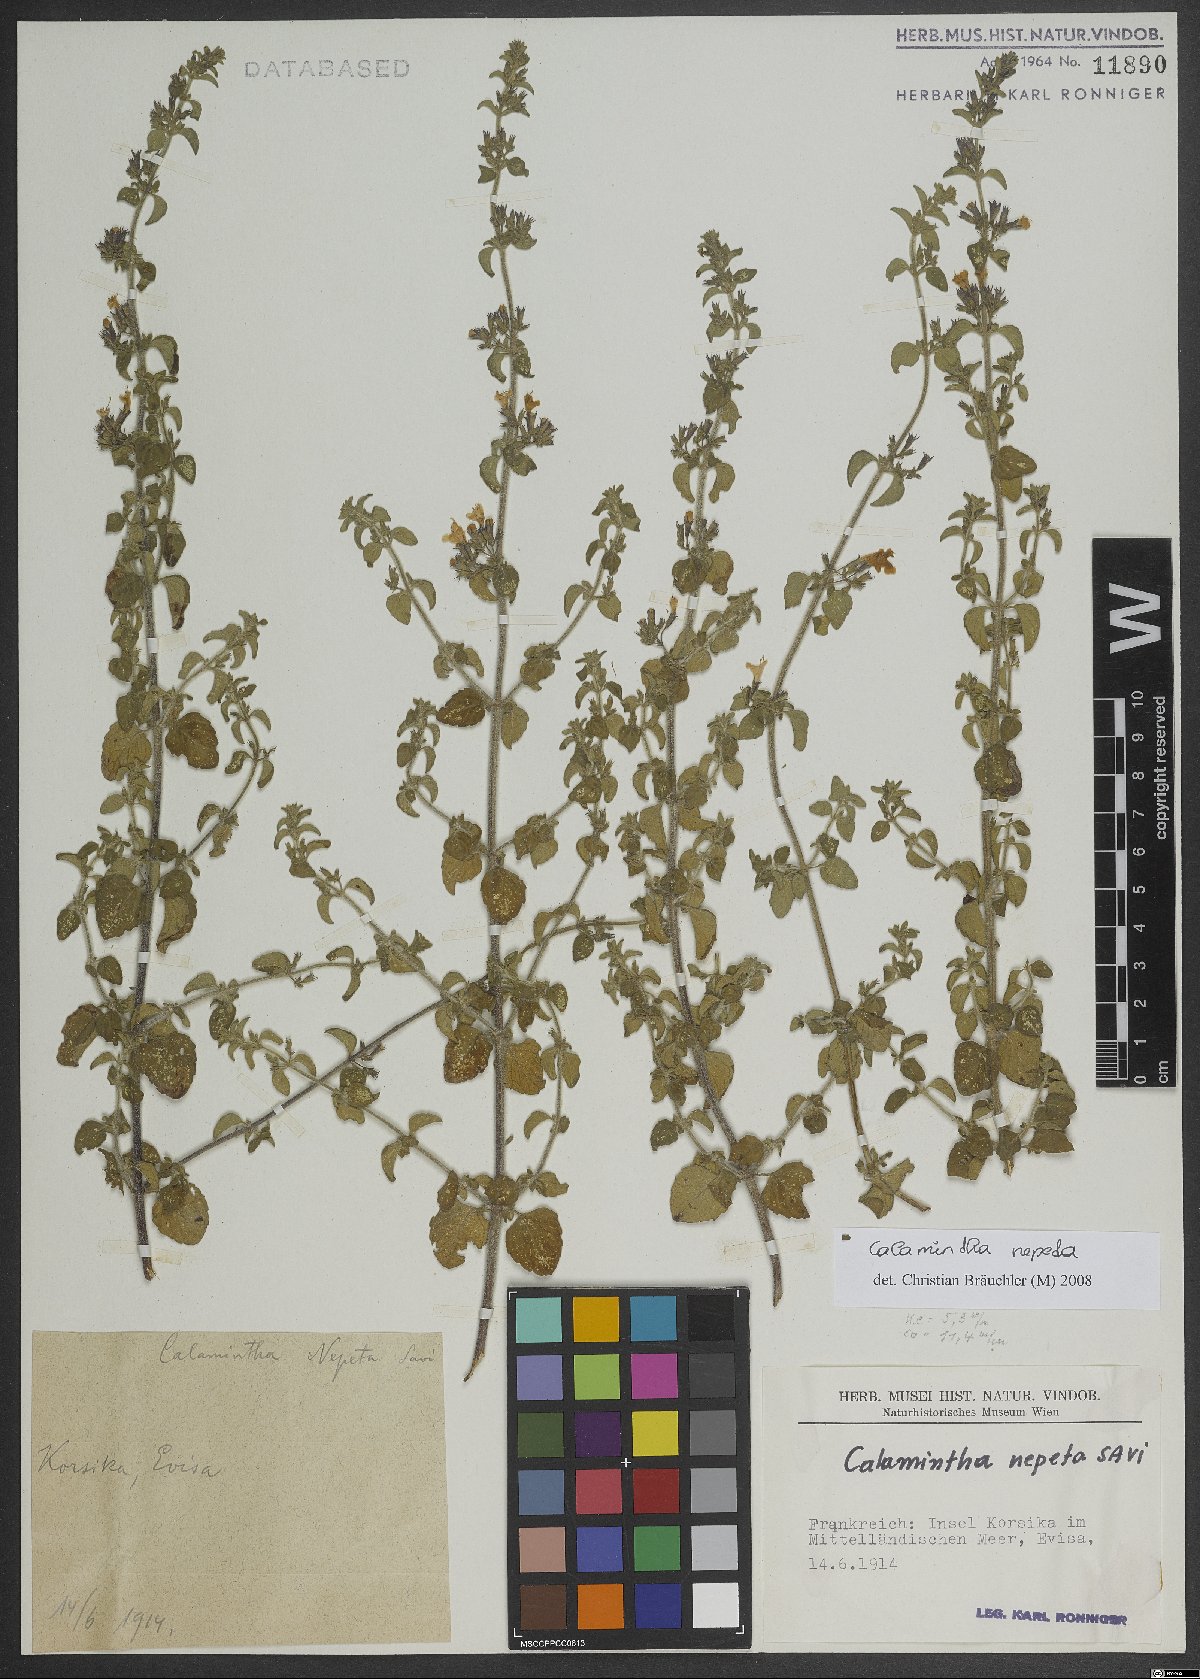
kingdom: Plantae
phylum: Tracheophyta
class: Magnoliopsida
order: Lamiales
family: Lamiaceae
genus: Clinopodium
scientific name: Clinopodium nepeta
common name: Lesser calamint
